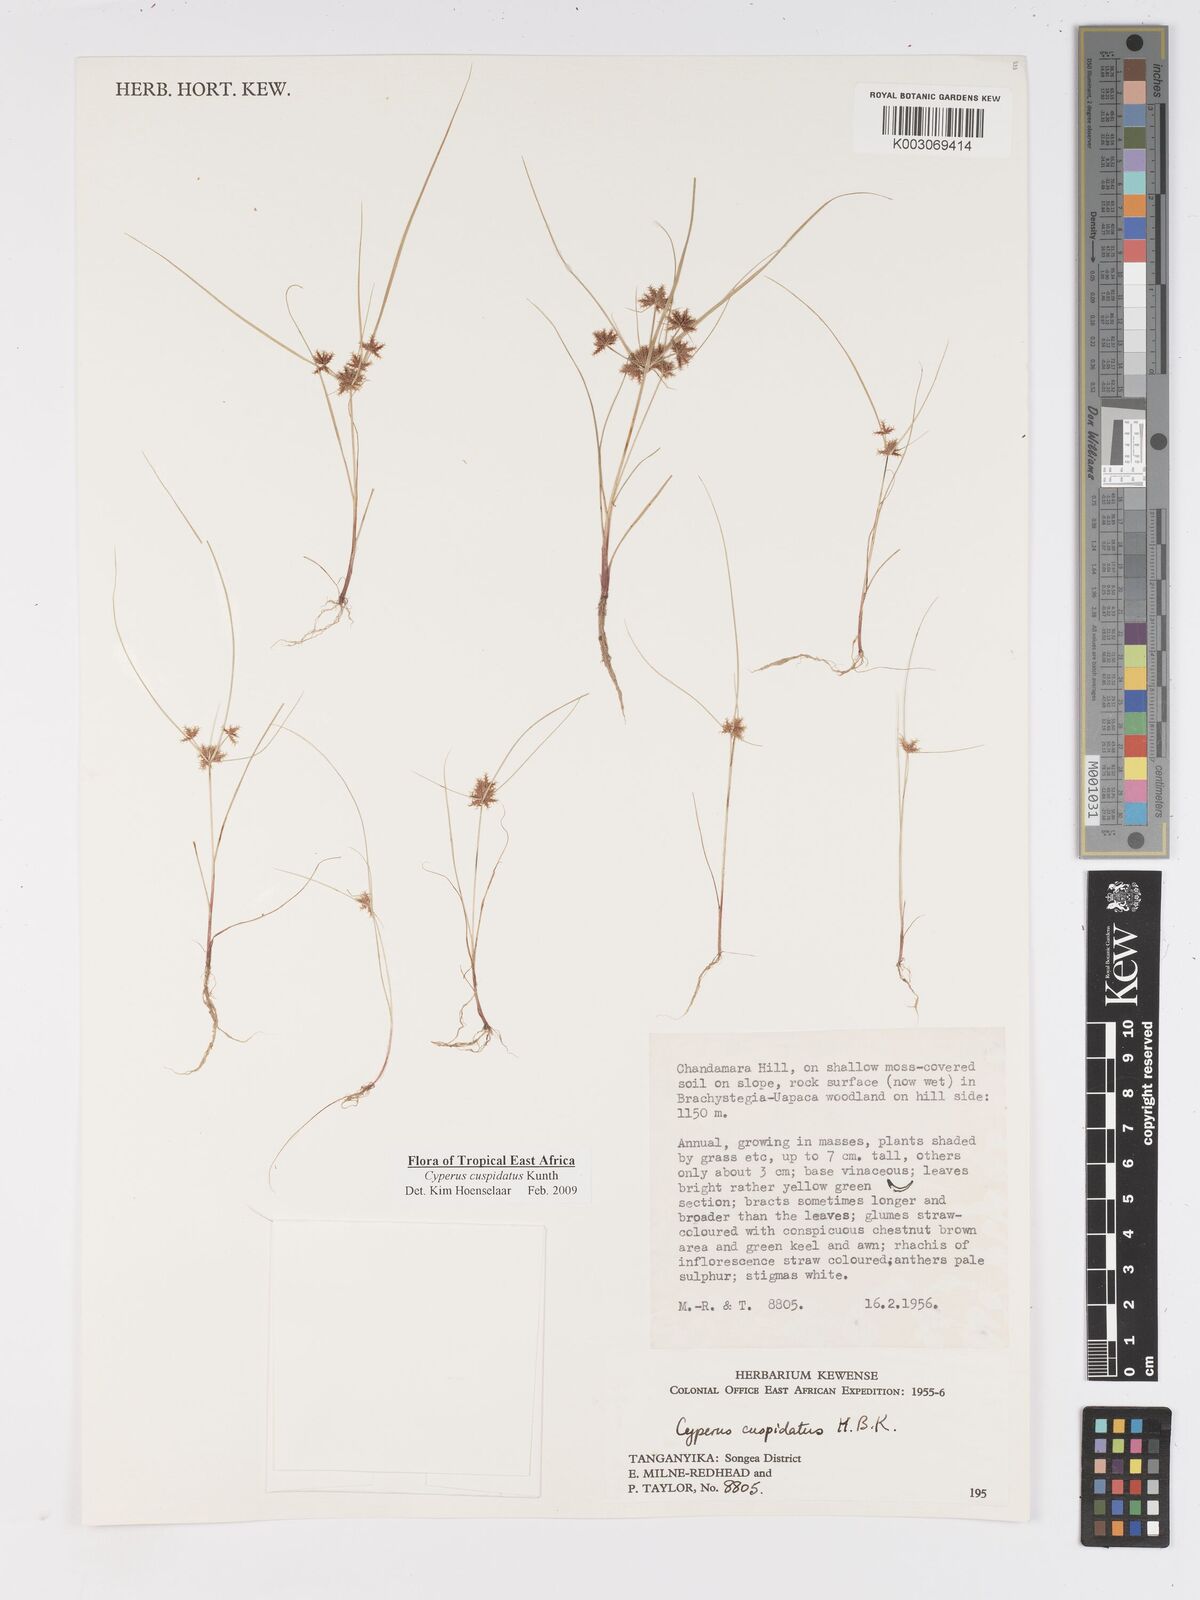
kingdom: Plantae
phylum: Tracheophyta
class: Liliopsida
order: Poales
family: Cyperaceae
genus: Cyperus
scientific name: Cyperus cuspidatus
